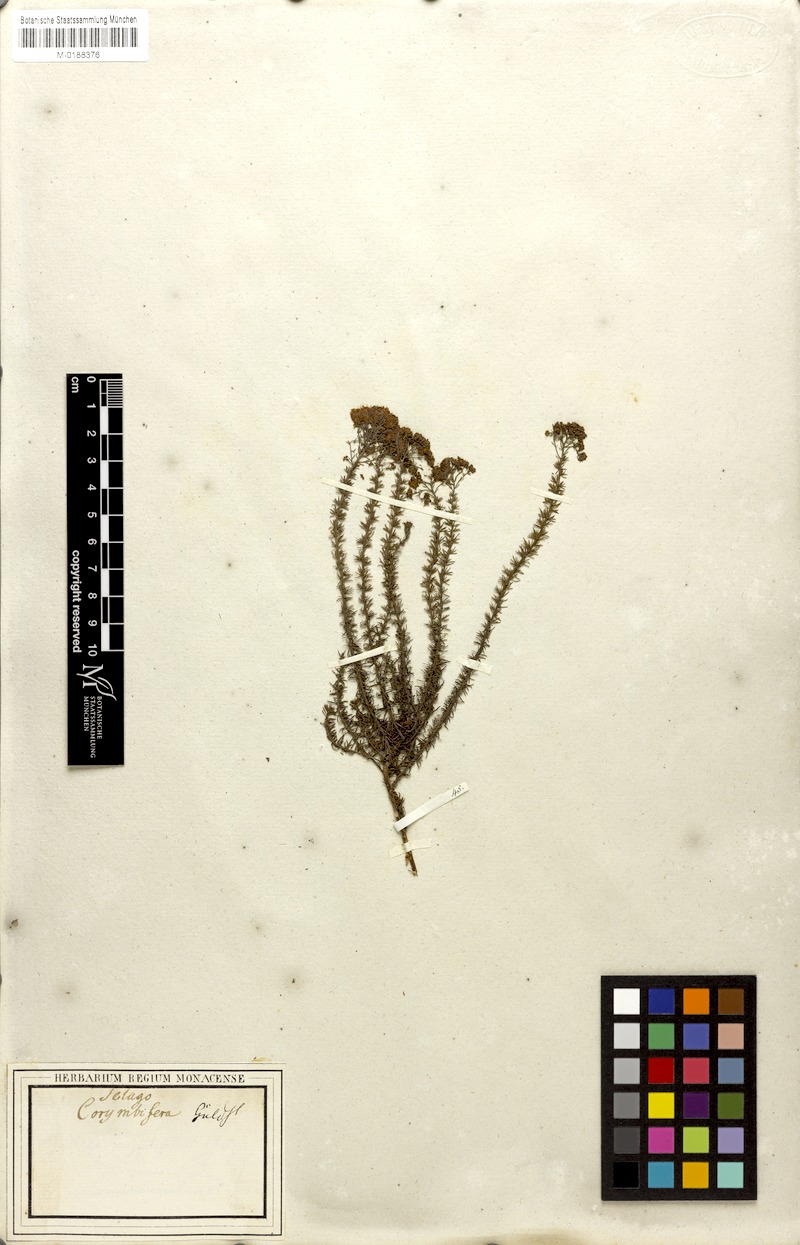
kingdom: Plantae
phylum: Tracheophyta
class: Magnoliopsida
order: Lamiales
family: Scrophulariaceae
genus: Selago
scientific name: Selago corymbosa
